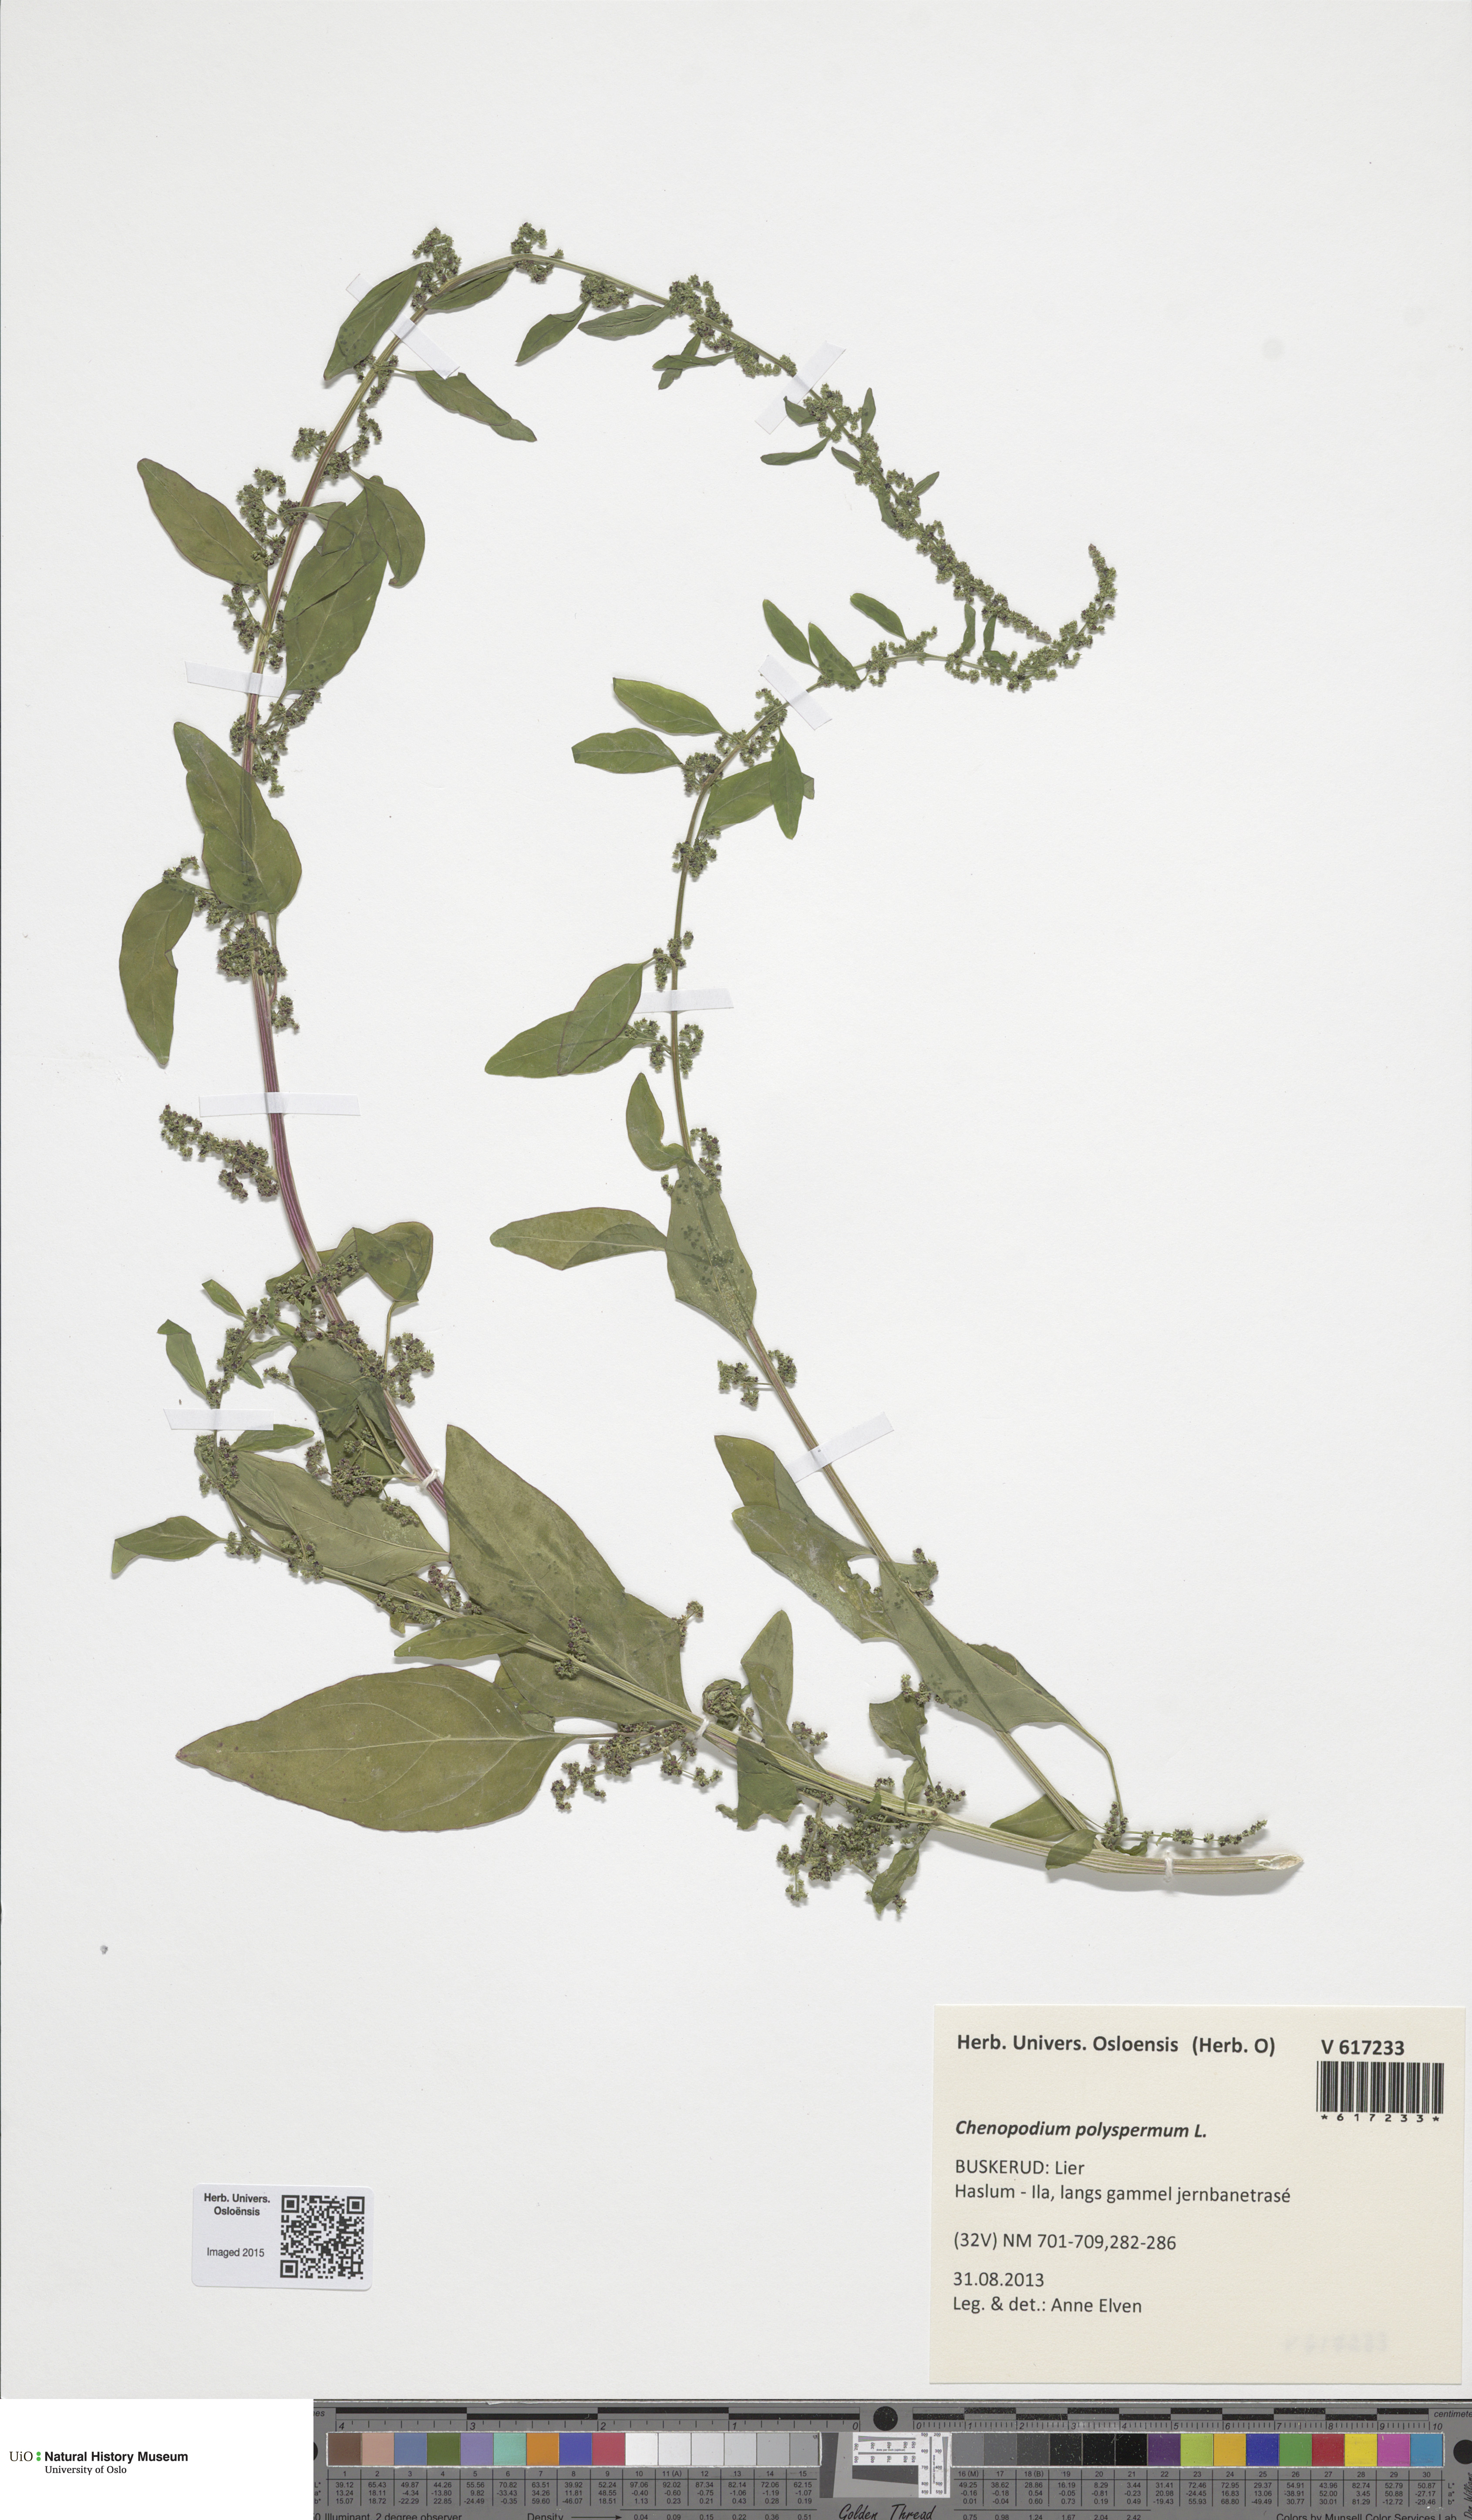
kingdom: Plantae
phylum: Tracheophyta
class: Magnoliopsida
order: Caryophyllales
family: Amaranthaceae
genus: Lipandra
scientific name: Lipandra polysperma
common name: Many-seed goosefoot
